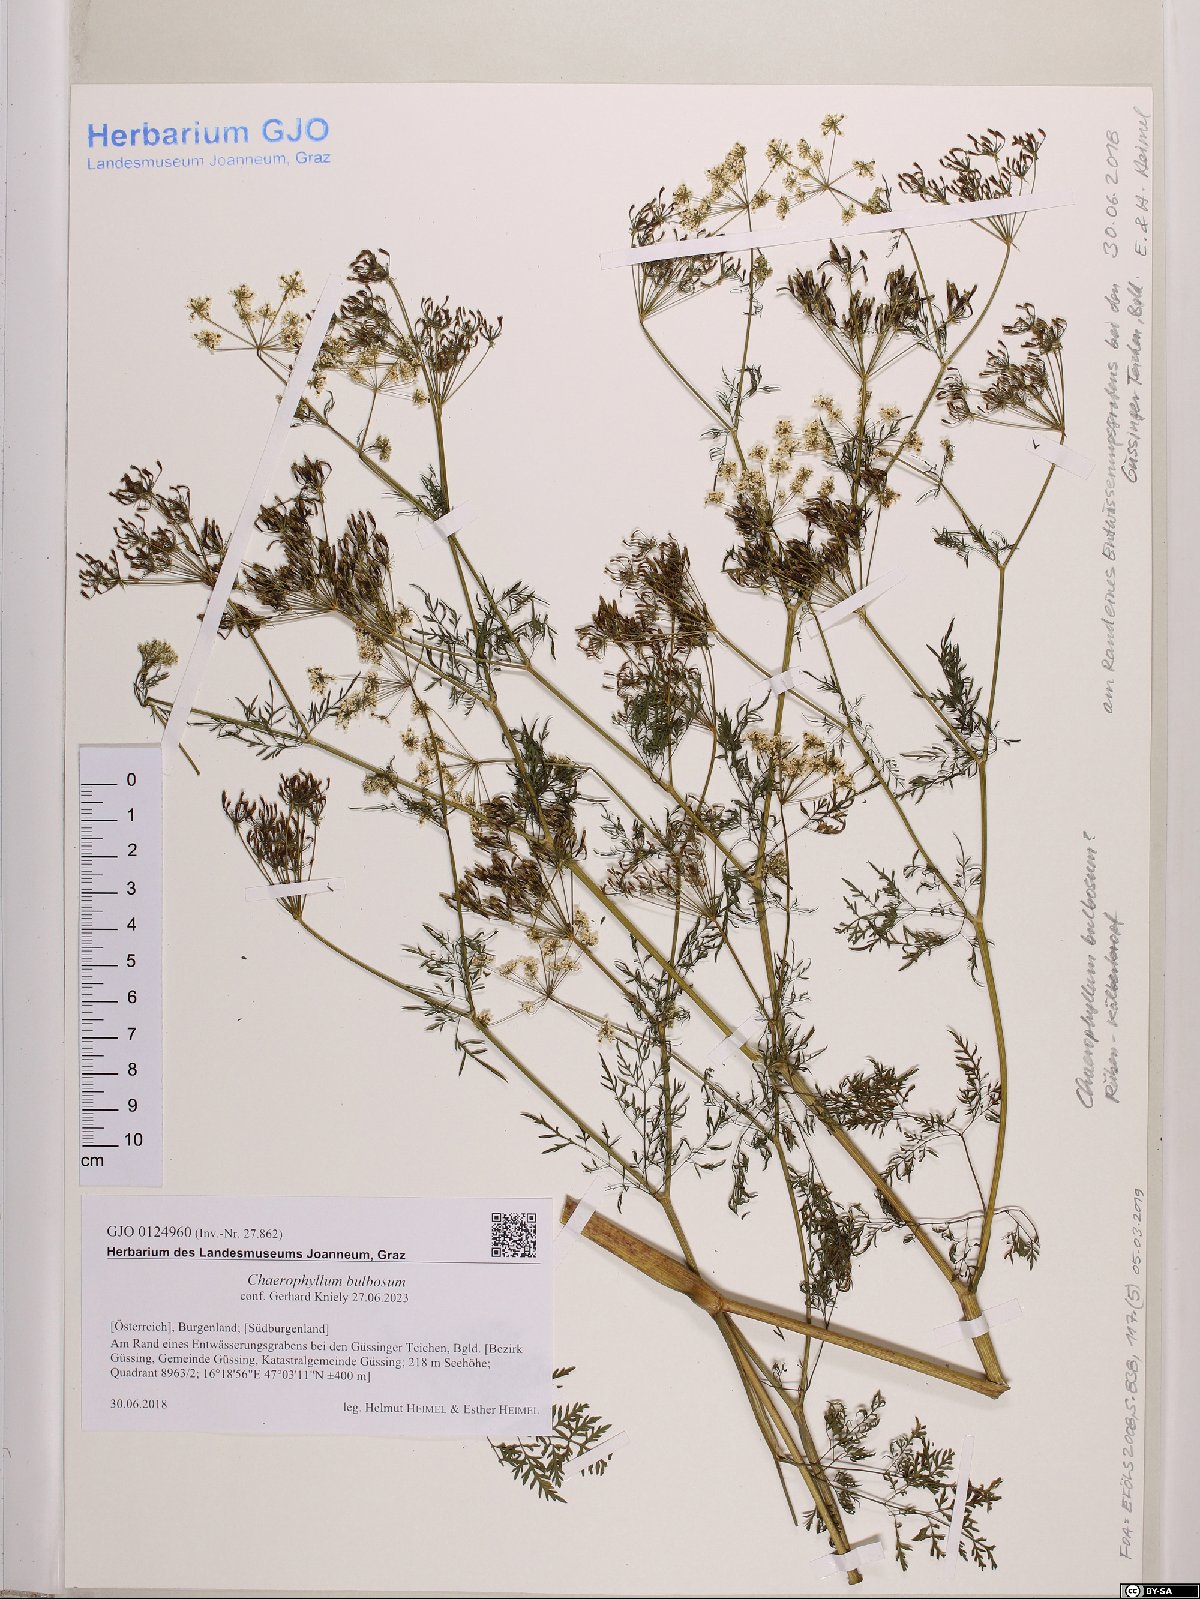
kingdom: Plantae
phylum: Tracheophyta
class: Magnoliopsida
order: Apiales
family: Apiaceae
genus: Chaerophyllum
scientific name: Chaerophyllum bulbosum
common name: Bulbous chervil
